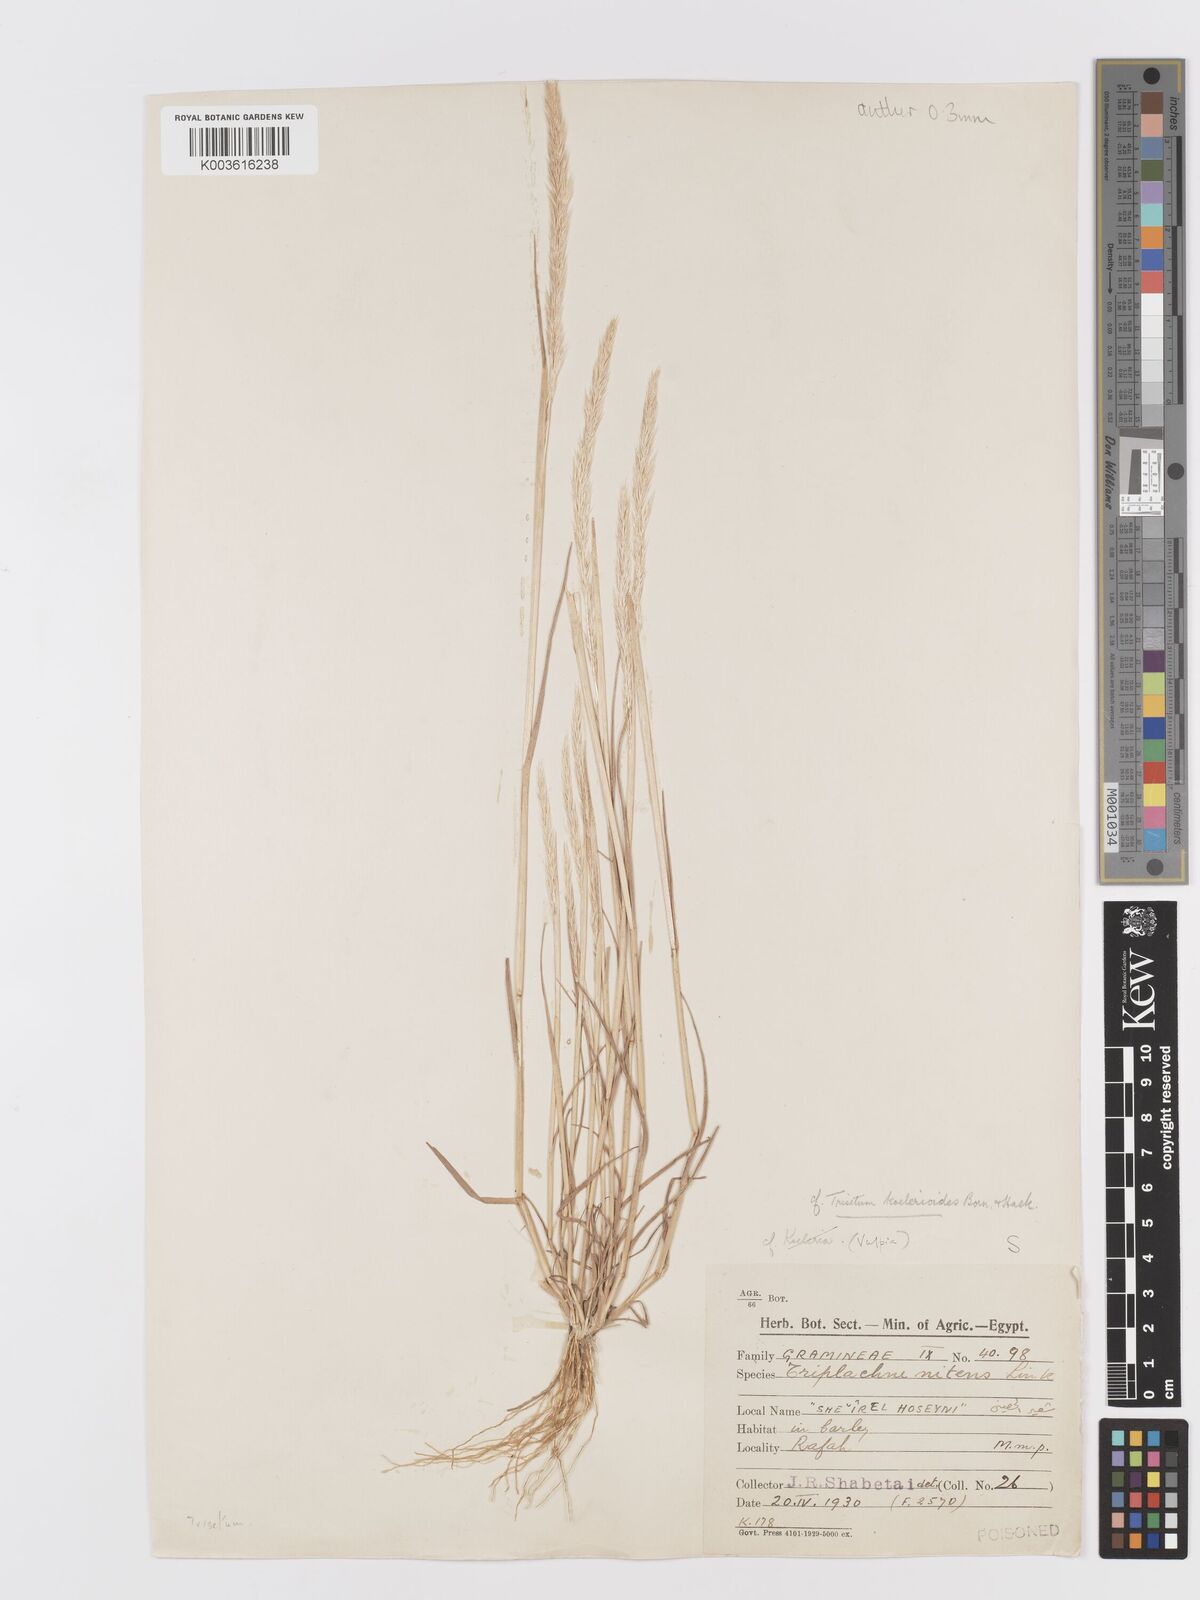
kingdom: Plantae
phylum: Tracheophyta
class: Liliopsida
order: Poales
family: Poaceae
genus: Trisetaria
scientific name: Trisetaria linearis
